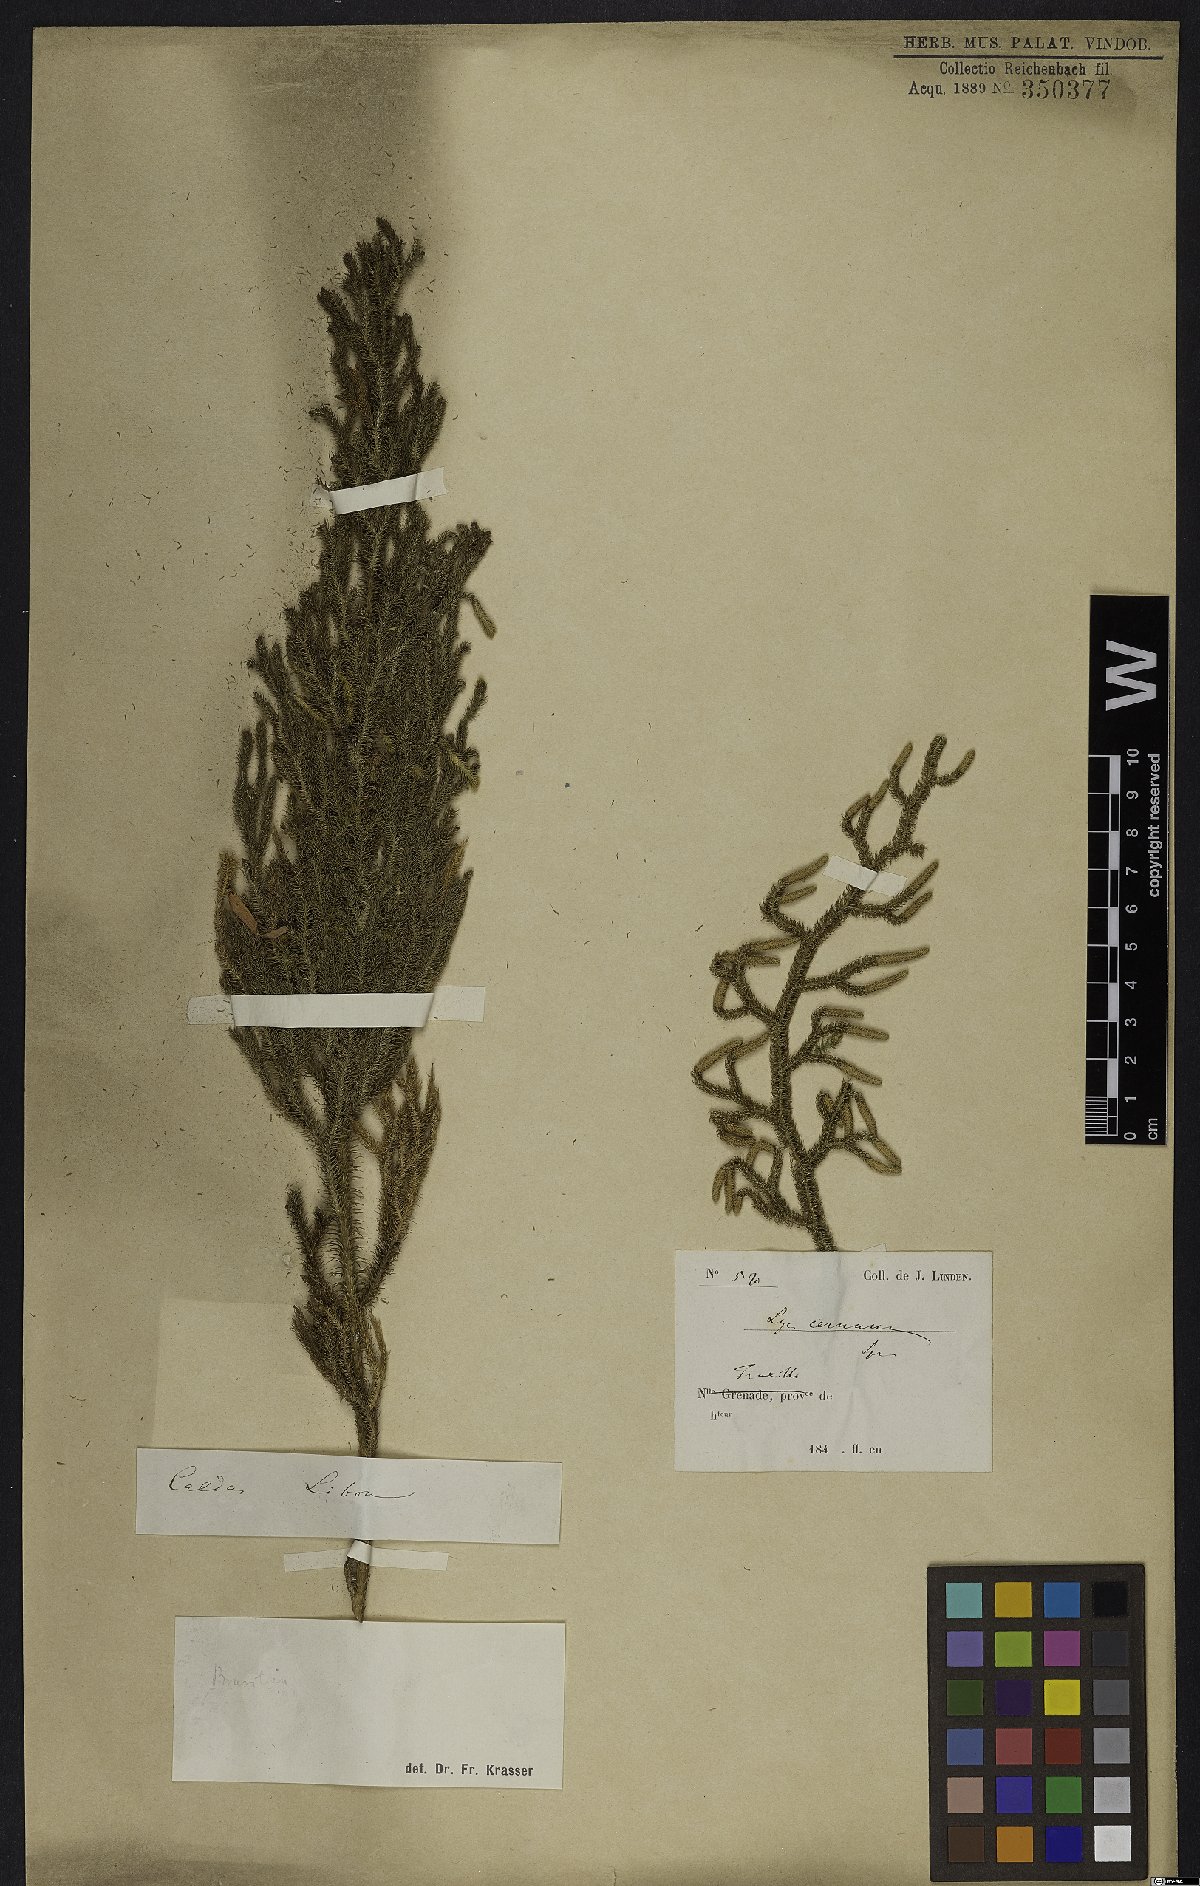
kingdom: Plantae
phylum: Tracheophyta
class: Lycopodiopsida
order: Lycopodiales
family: Lycopodiaceae
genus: Palhinhaea
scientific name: Palhinhaea cernua
